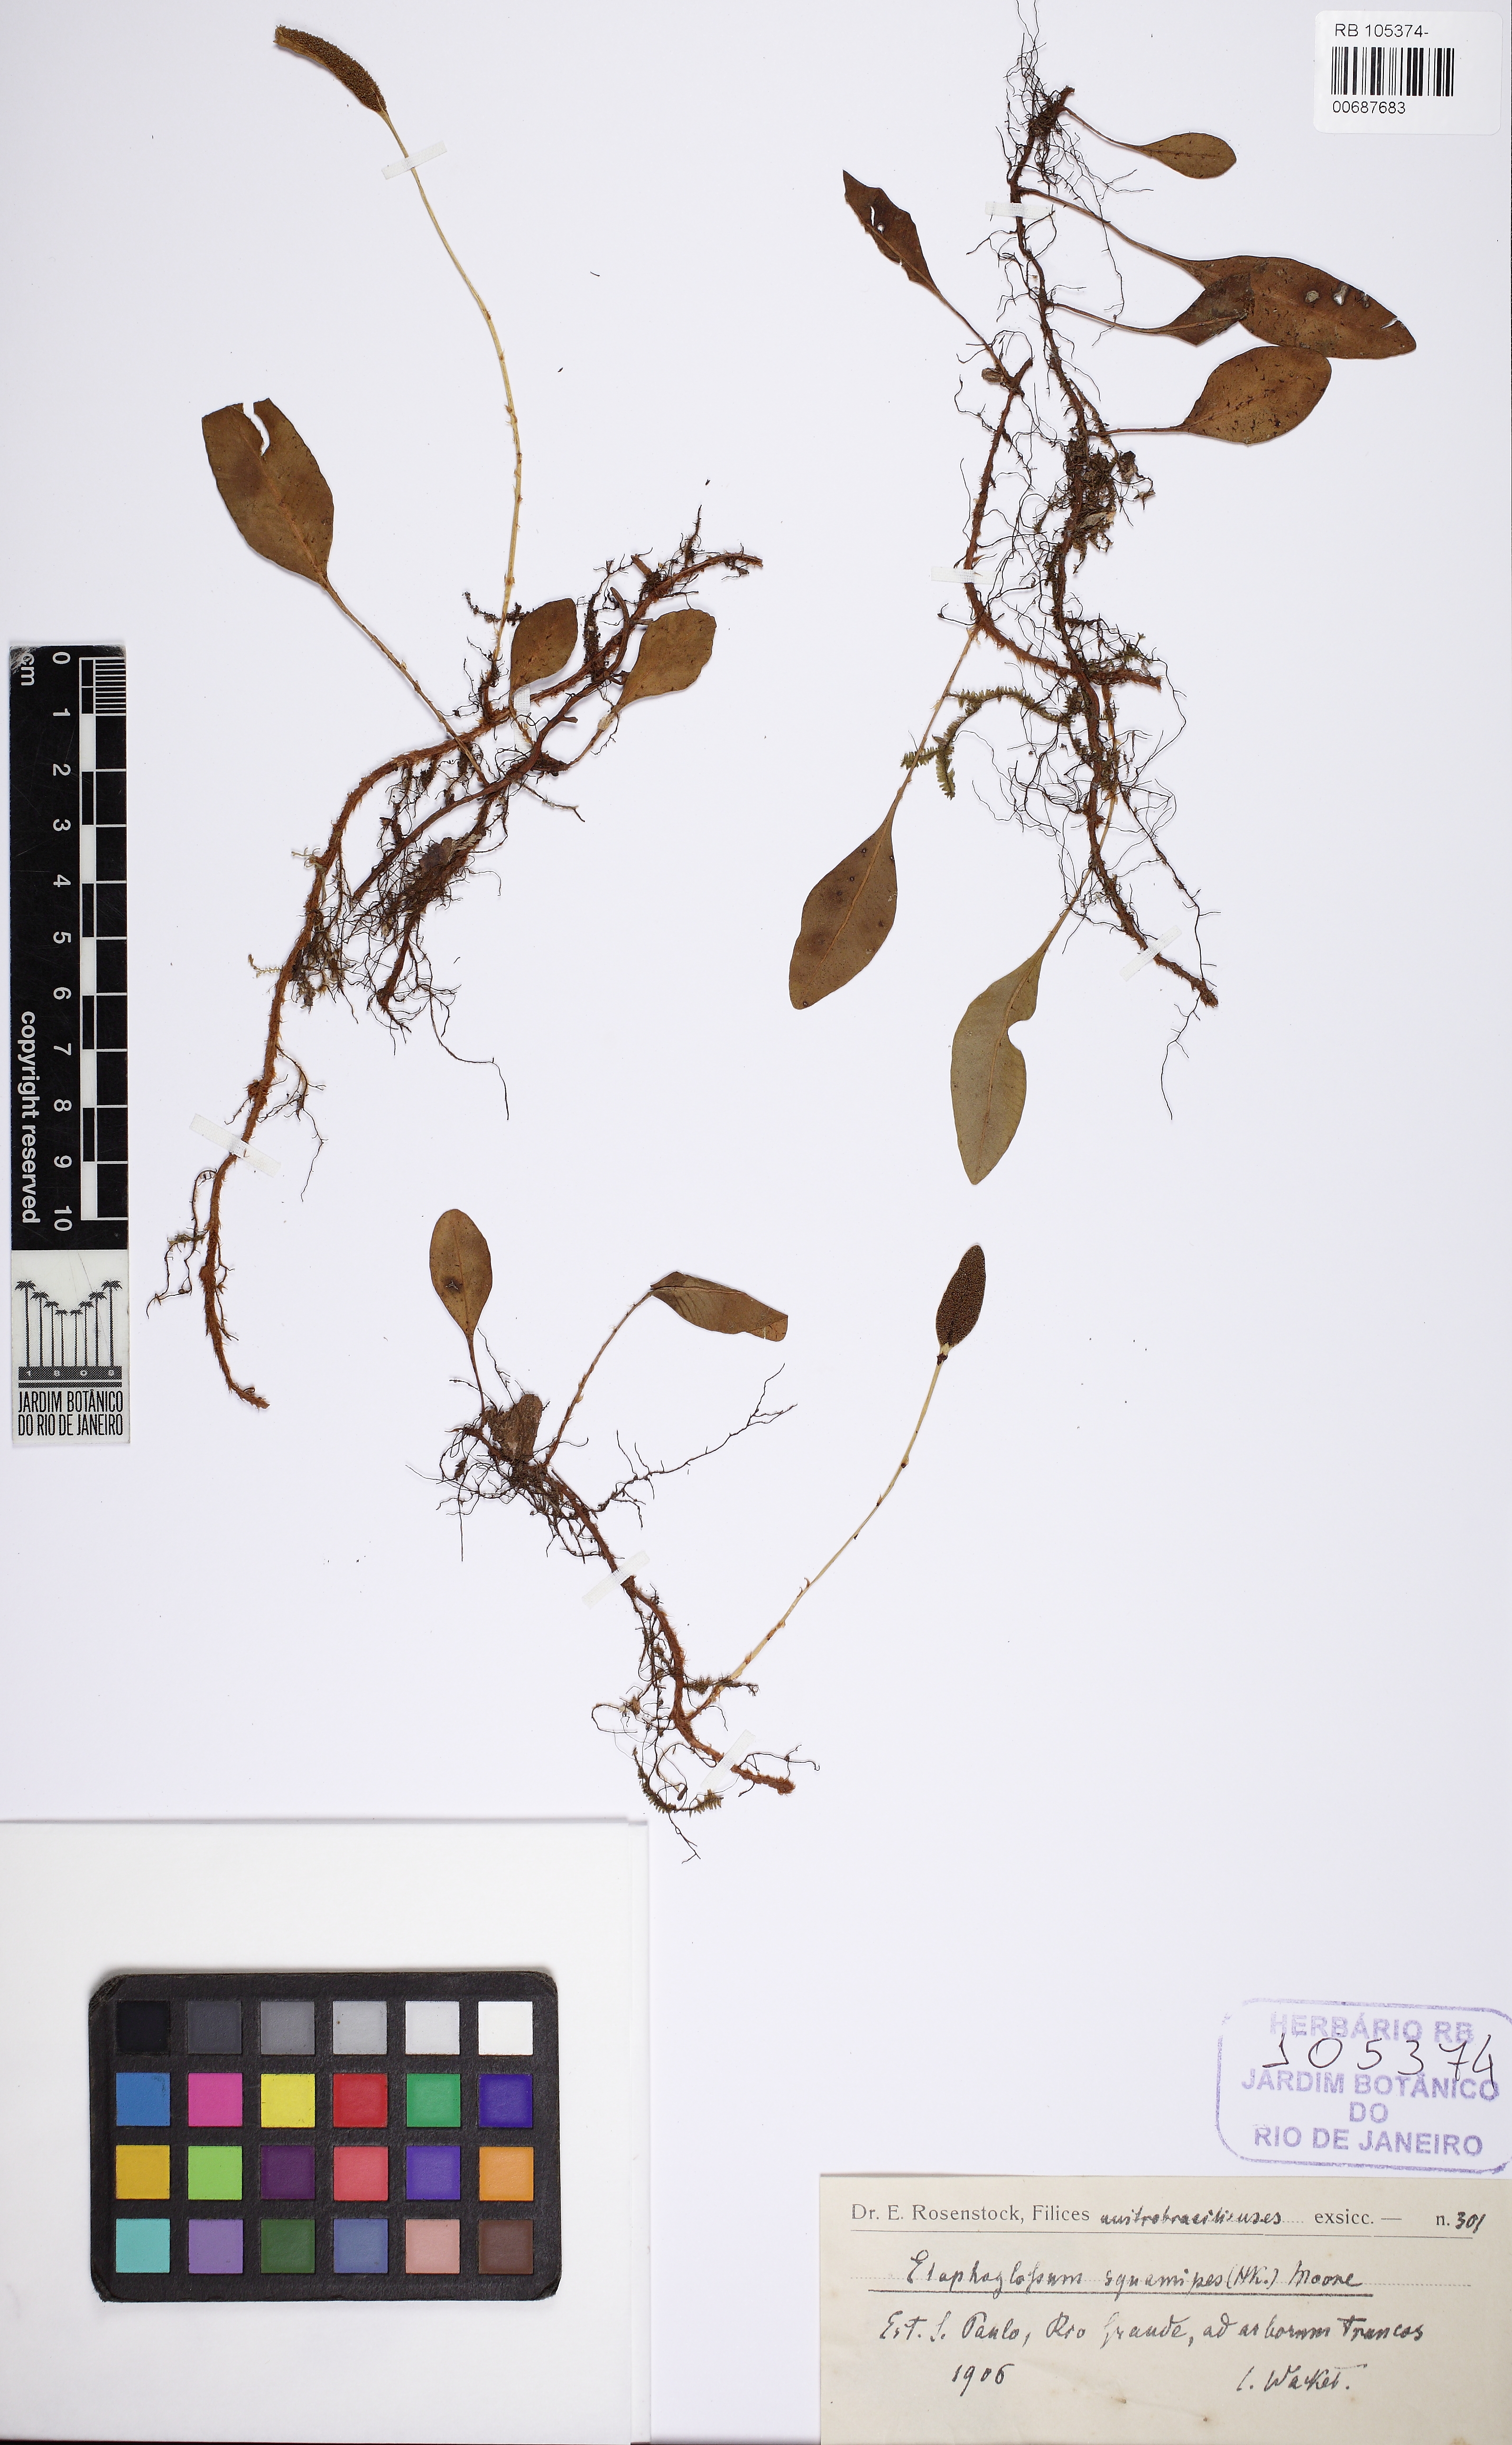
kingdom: Plantae
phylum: Tracheophyta
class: Polypodiopsida
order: Polypodiales
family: Dryopteridaceae
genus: Elaphoglossum
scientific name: Elaphoglossum squamipes
